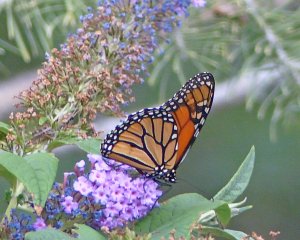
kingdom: Animalia
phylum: Arthropoda
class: Insecta
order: Lepidoptera
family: Nymphalidae
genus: Danaus
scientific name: Danaus plexippus
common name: Monarch
